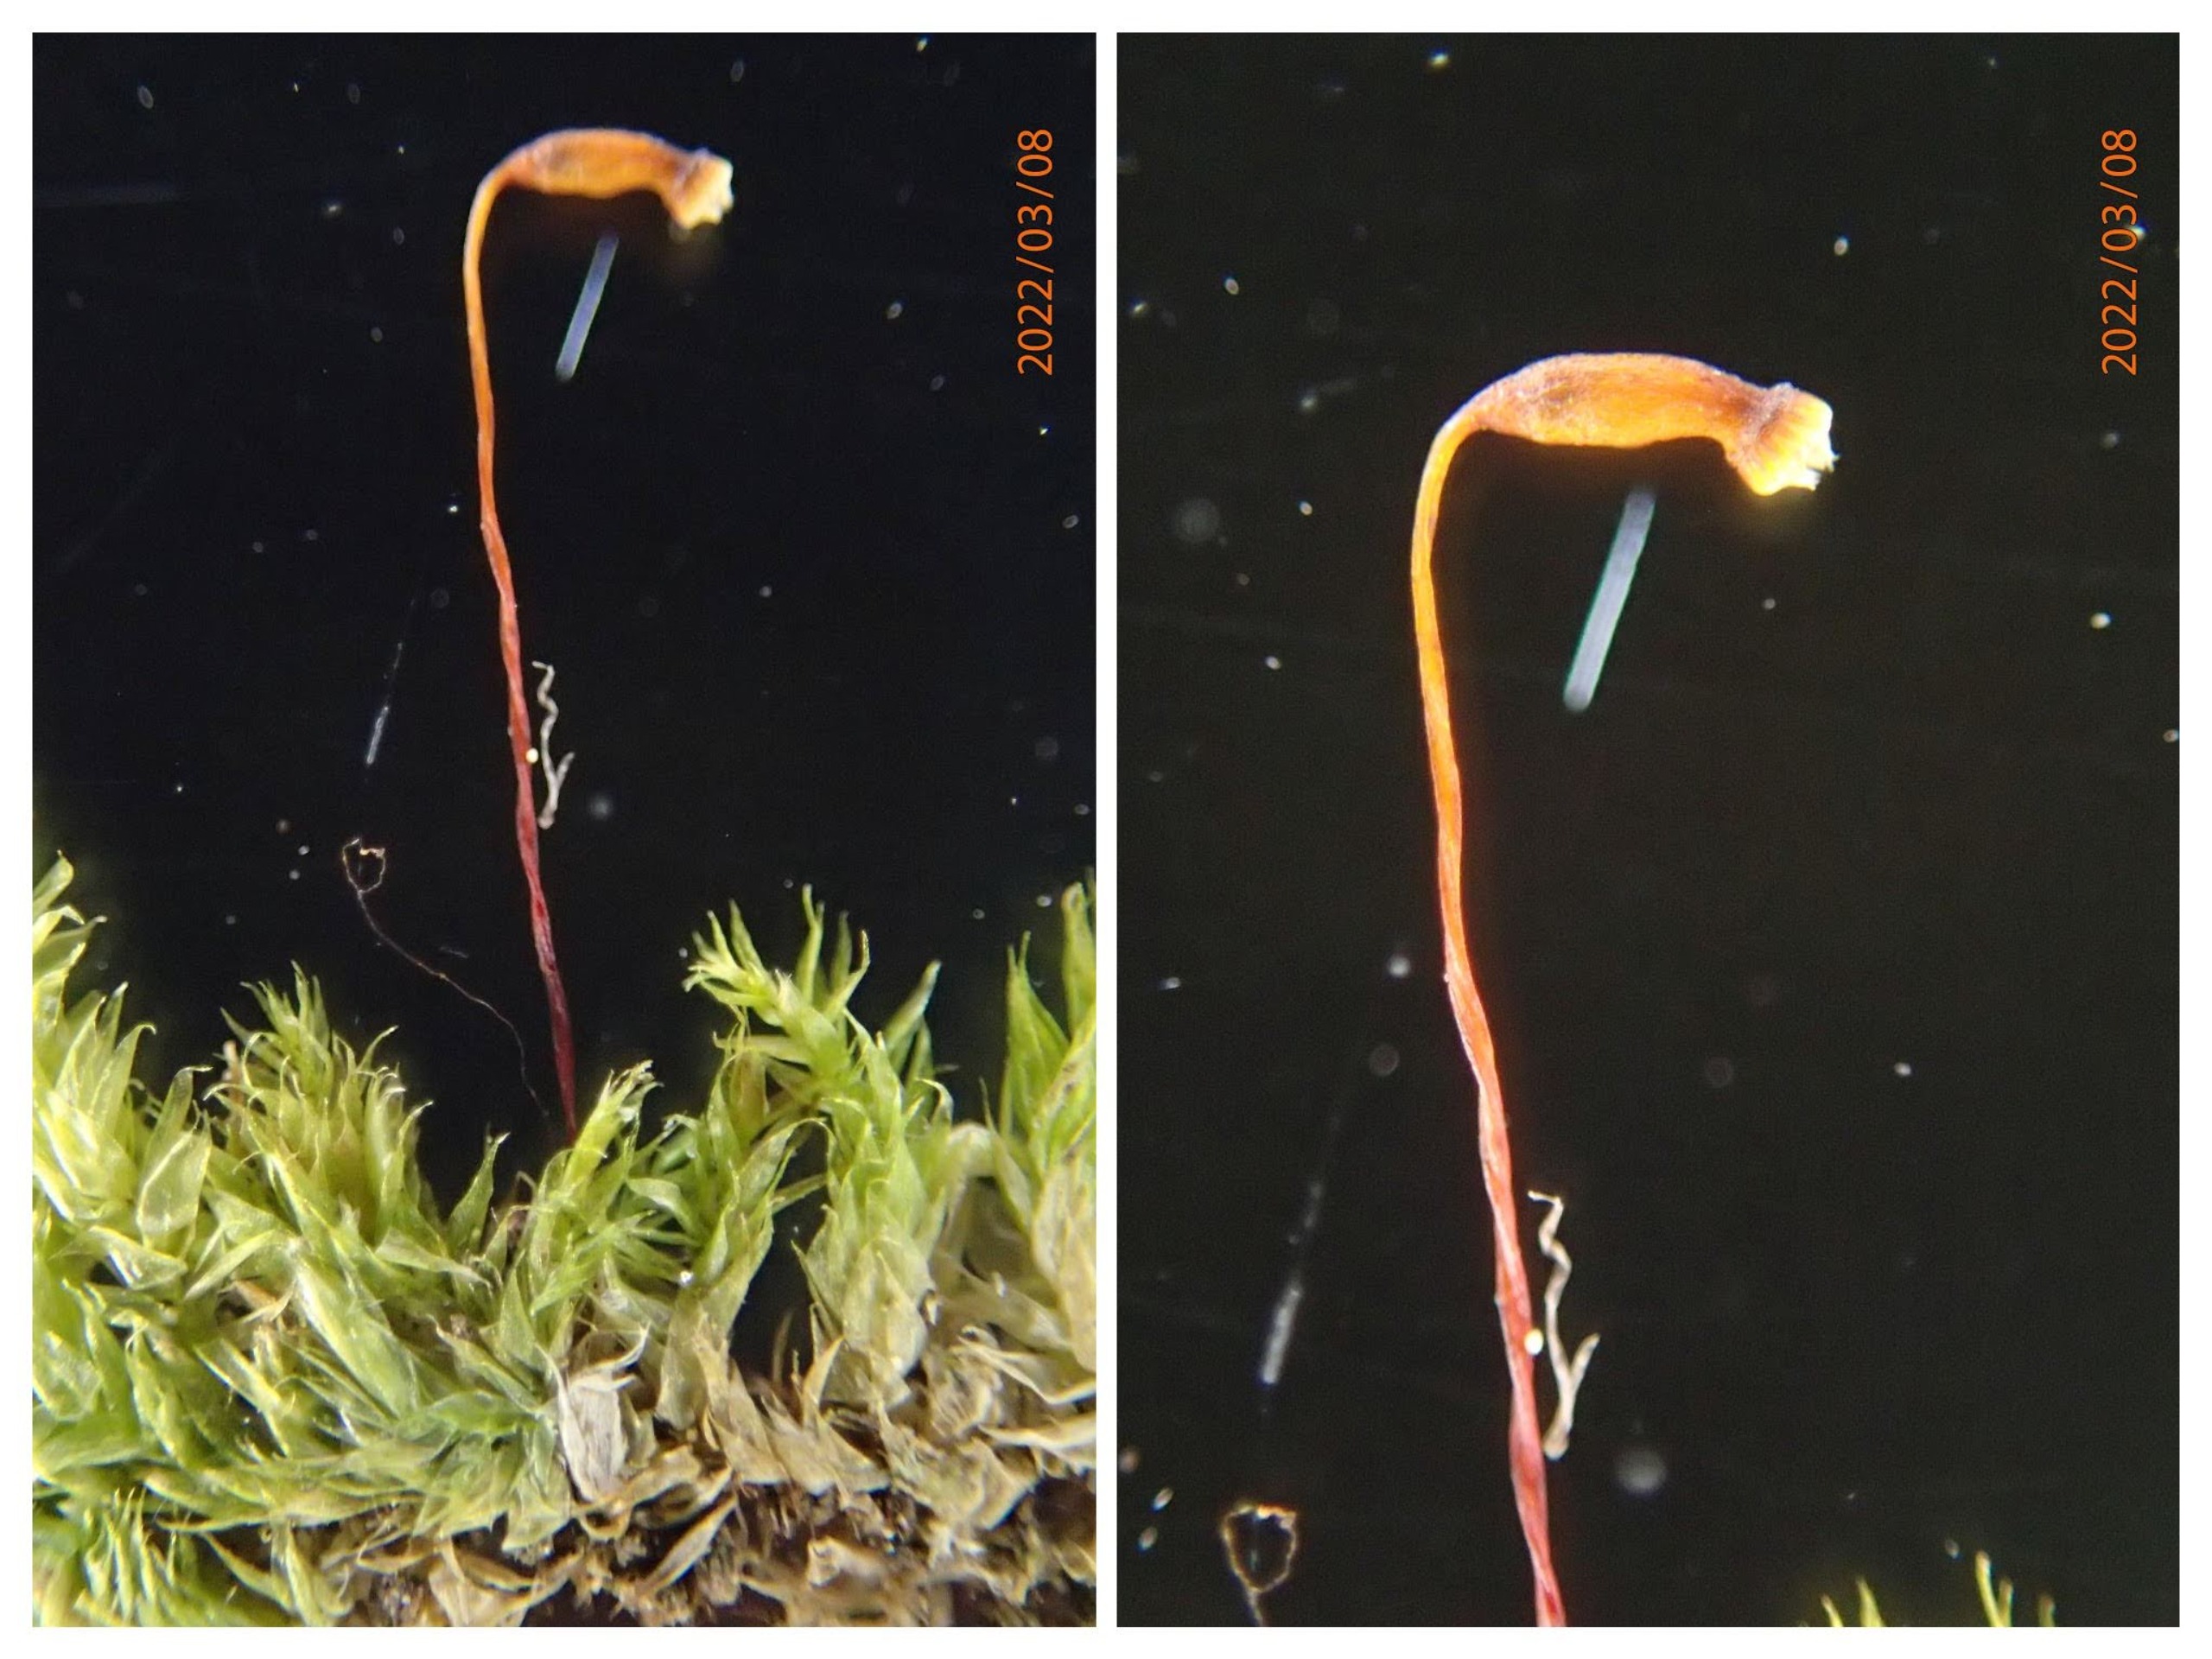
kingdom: Plantae
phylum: Bryophyta
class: Bryopsida
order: Hypnales
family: Brachytheciaceae
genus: Rhynchostegium
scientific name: Rhynchostegium confertum
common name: Skov-langnæb
